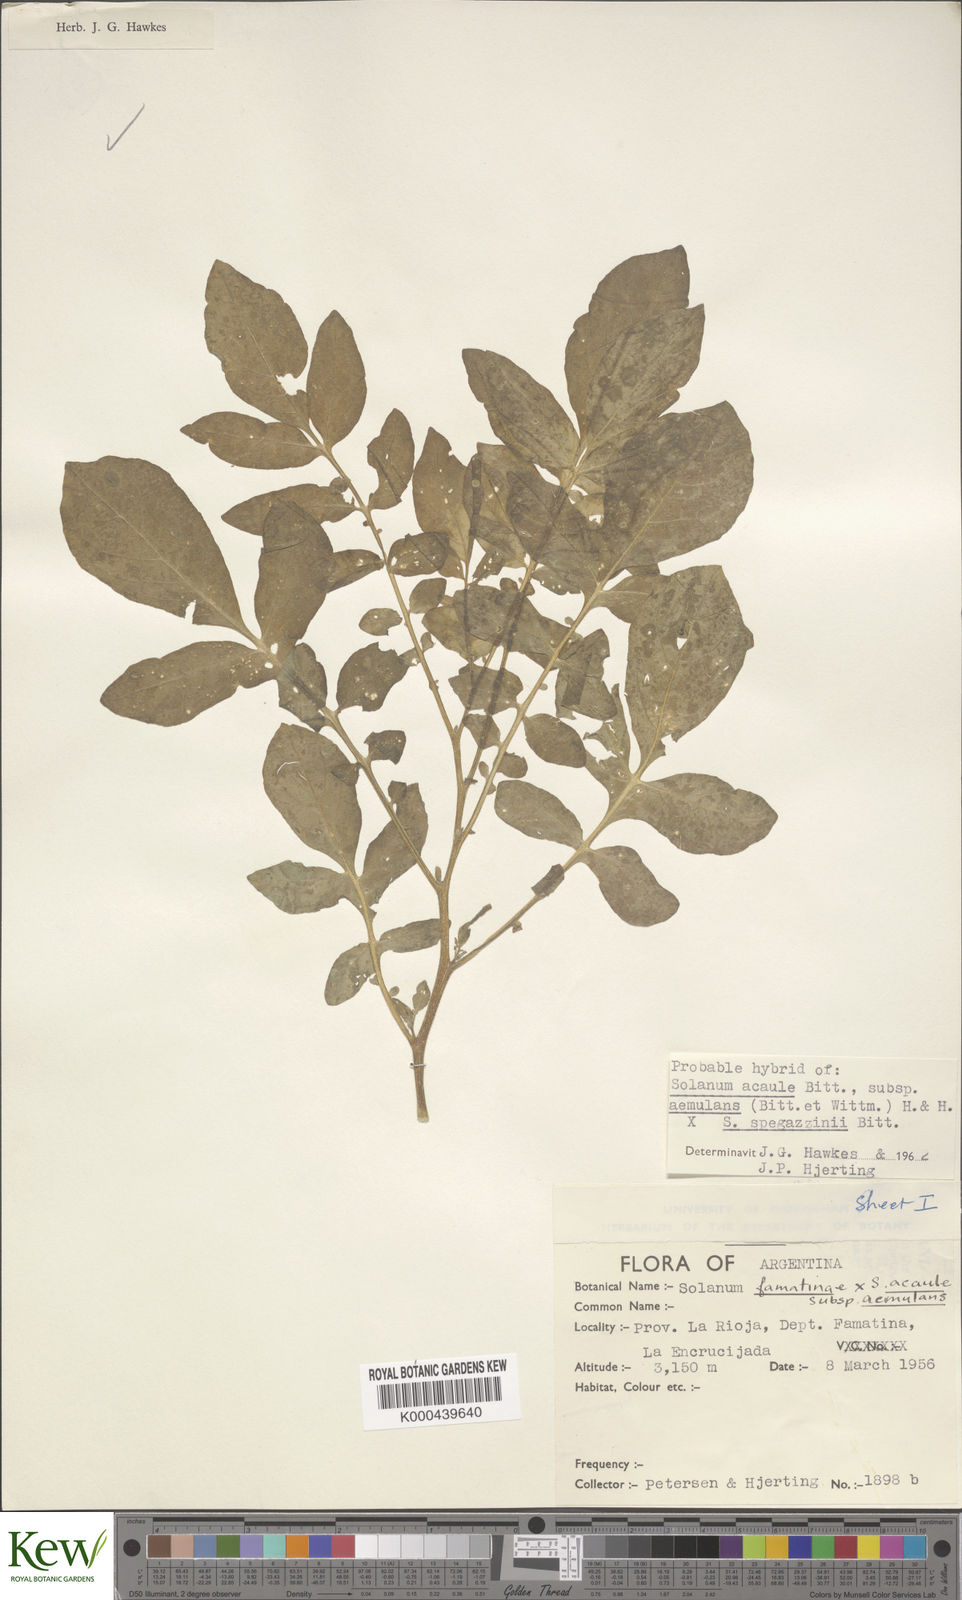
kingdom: Plantae
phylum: Tracheophyta
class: Magnoliopsida
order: Solanales
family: Solanaceae
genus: Solanum
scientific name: Solanum aemulans
